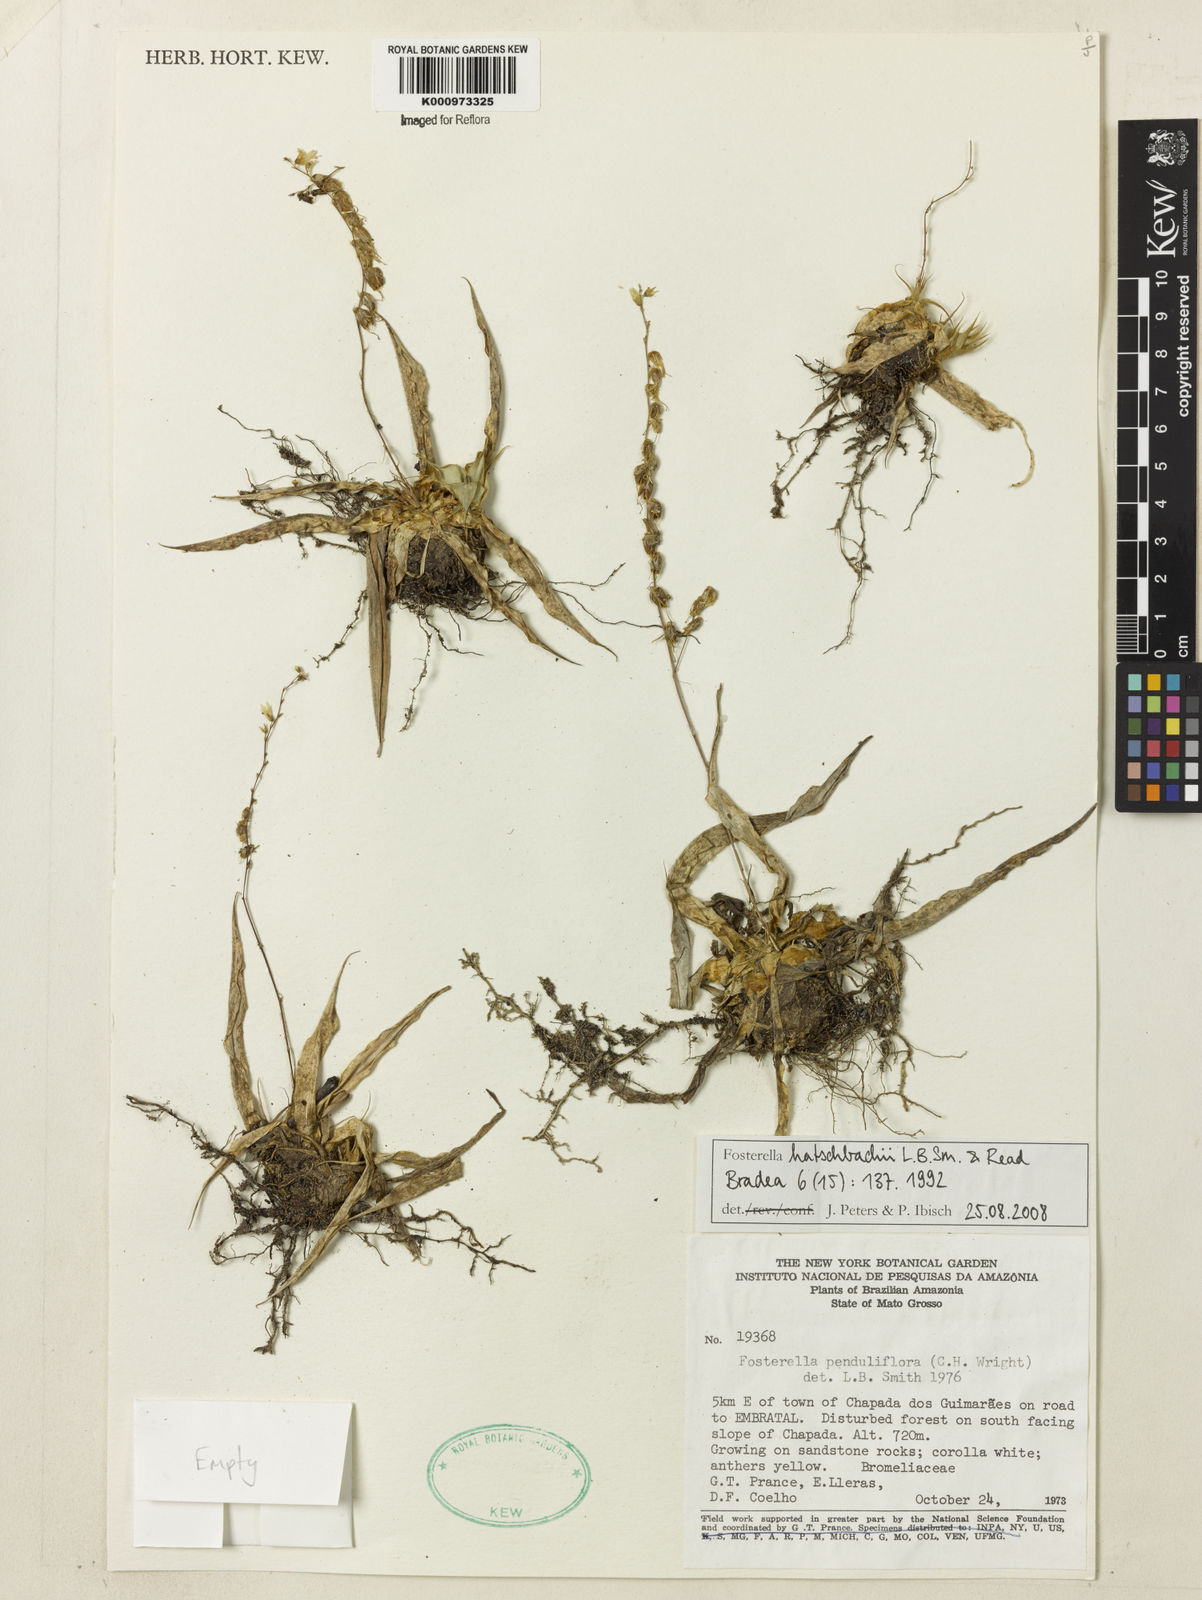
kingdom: Plantae
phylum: Tracheophyta
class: Liliopsida
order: Poales
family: Bromeliaceae
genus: Fosterella
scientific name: Fosterella hatschbachii
